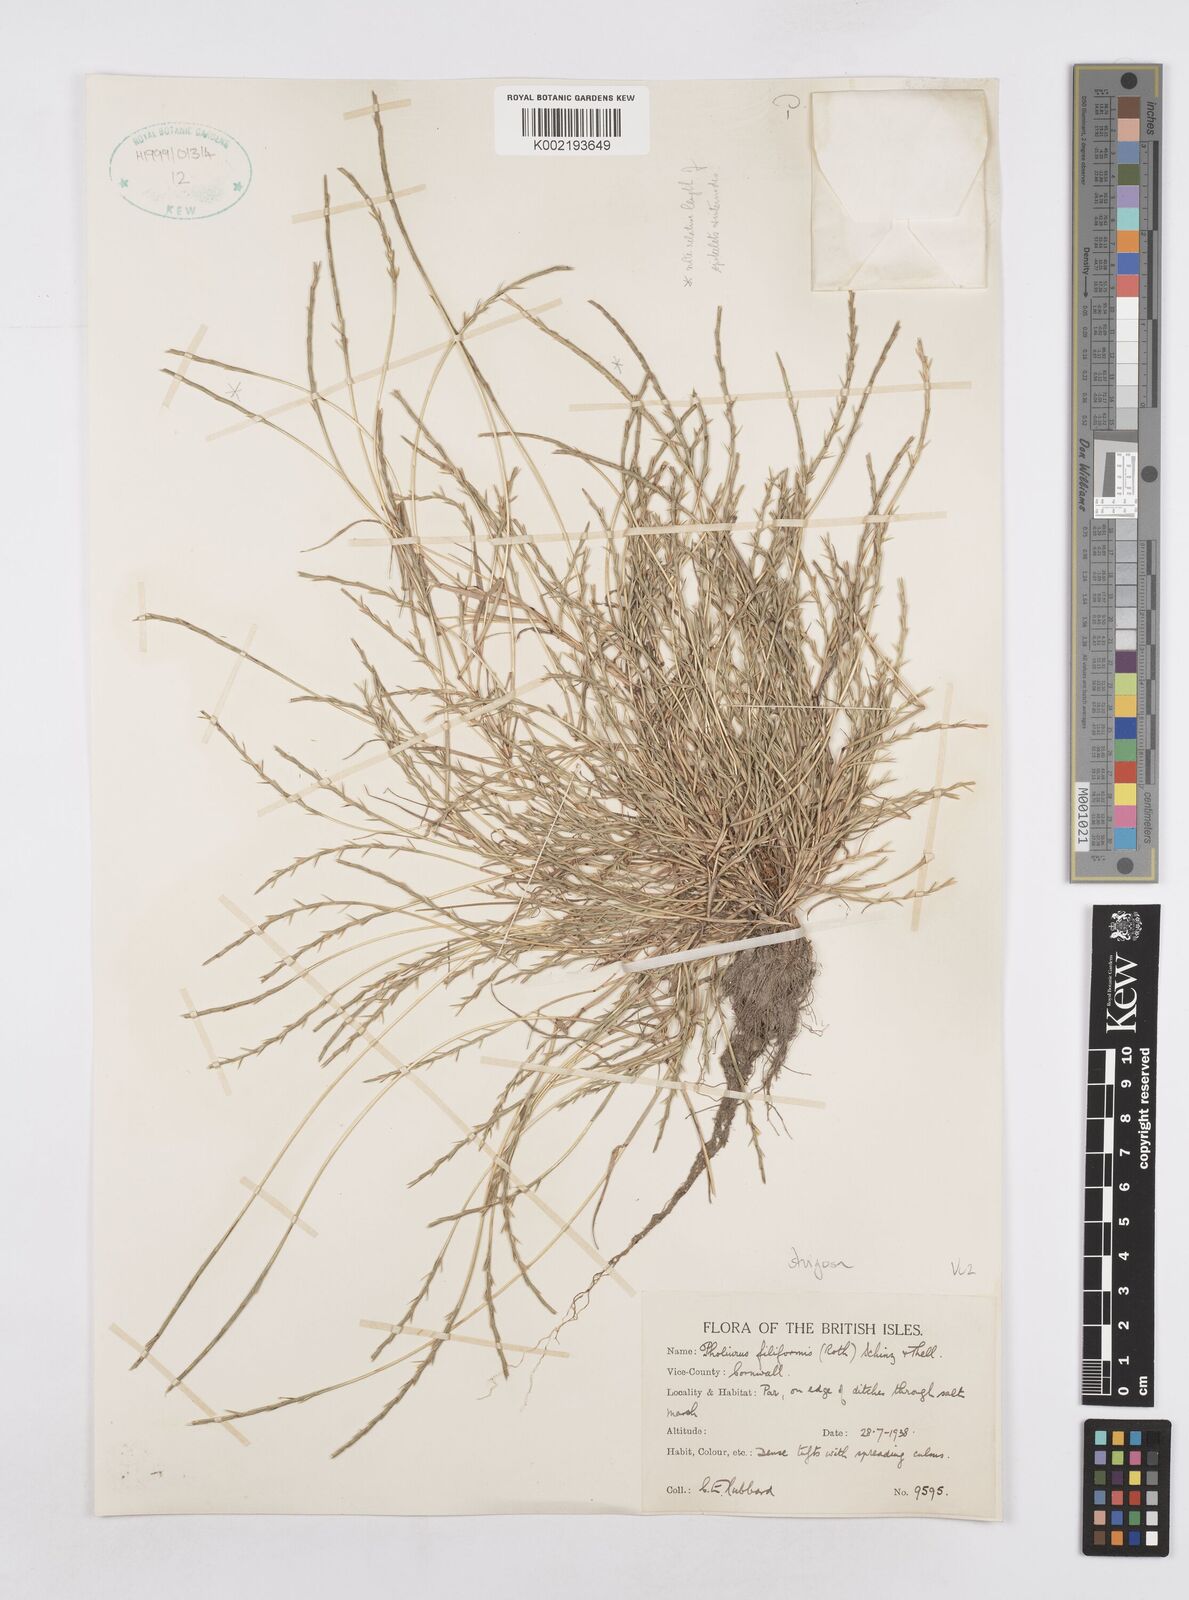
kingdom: Plantae
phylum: Tracheophyta
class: Liliopsida
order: Poales
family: Poaceae
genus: Parapholis
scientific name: Parapholis strigosa
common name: Hard-grass
